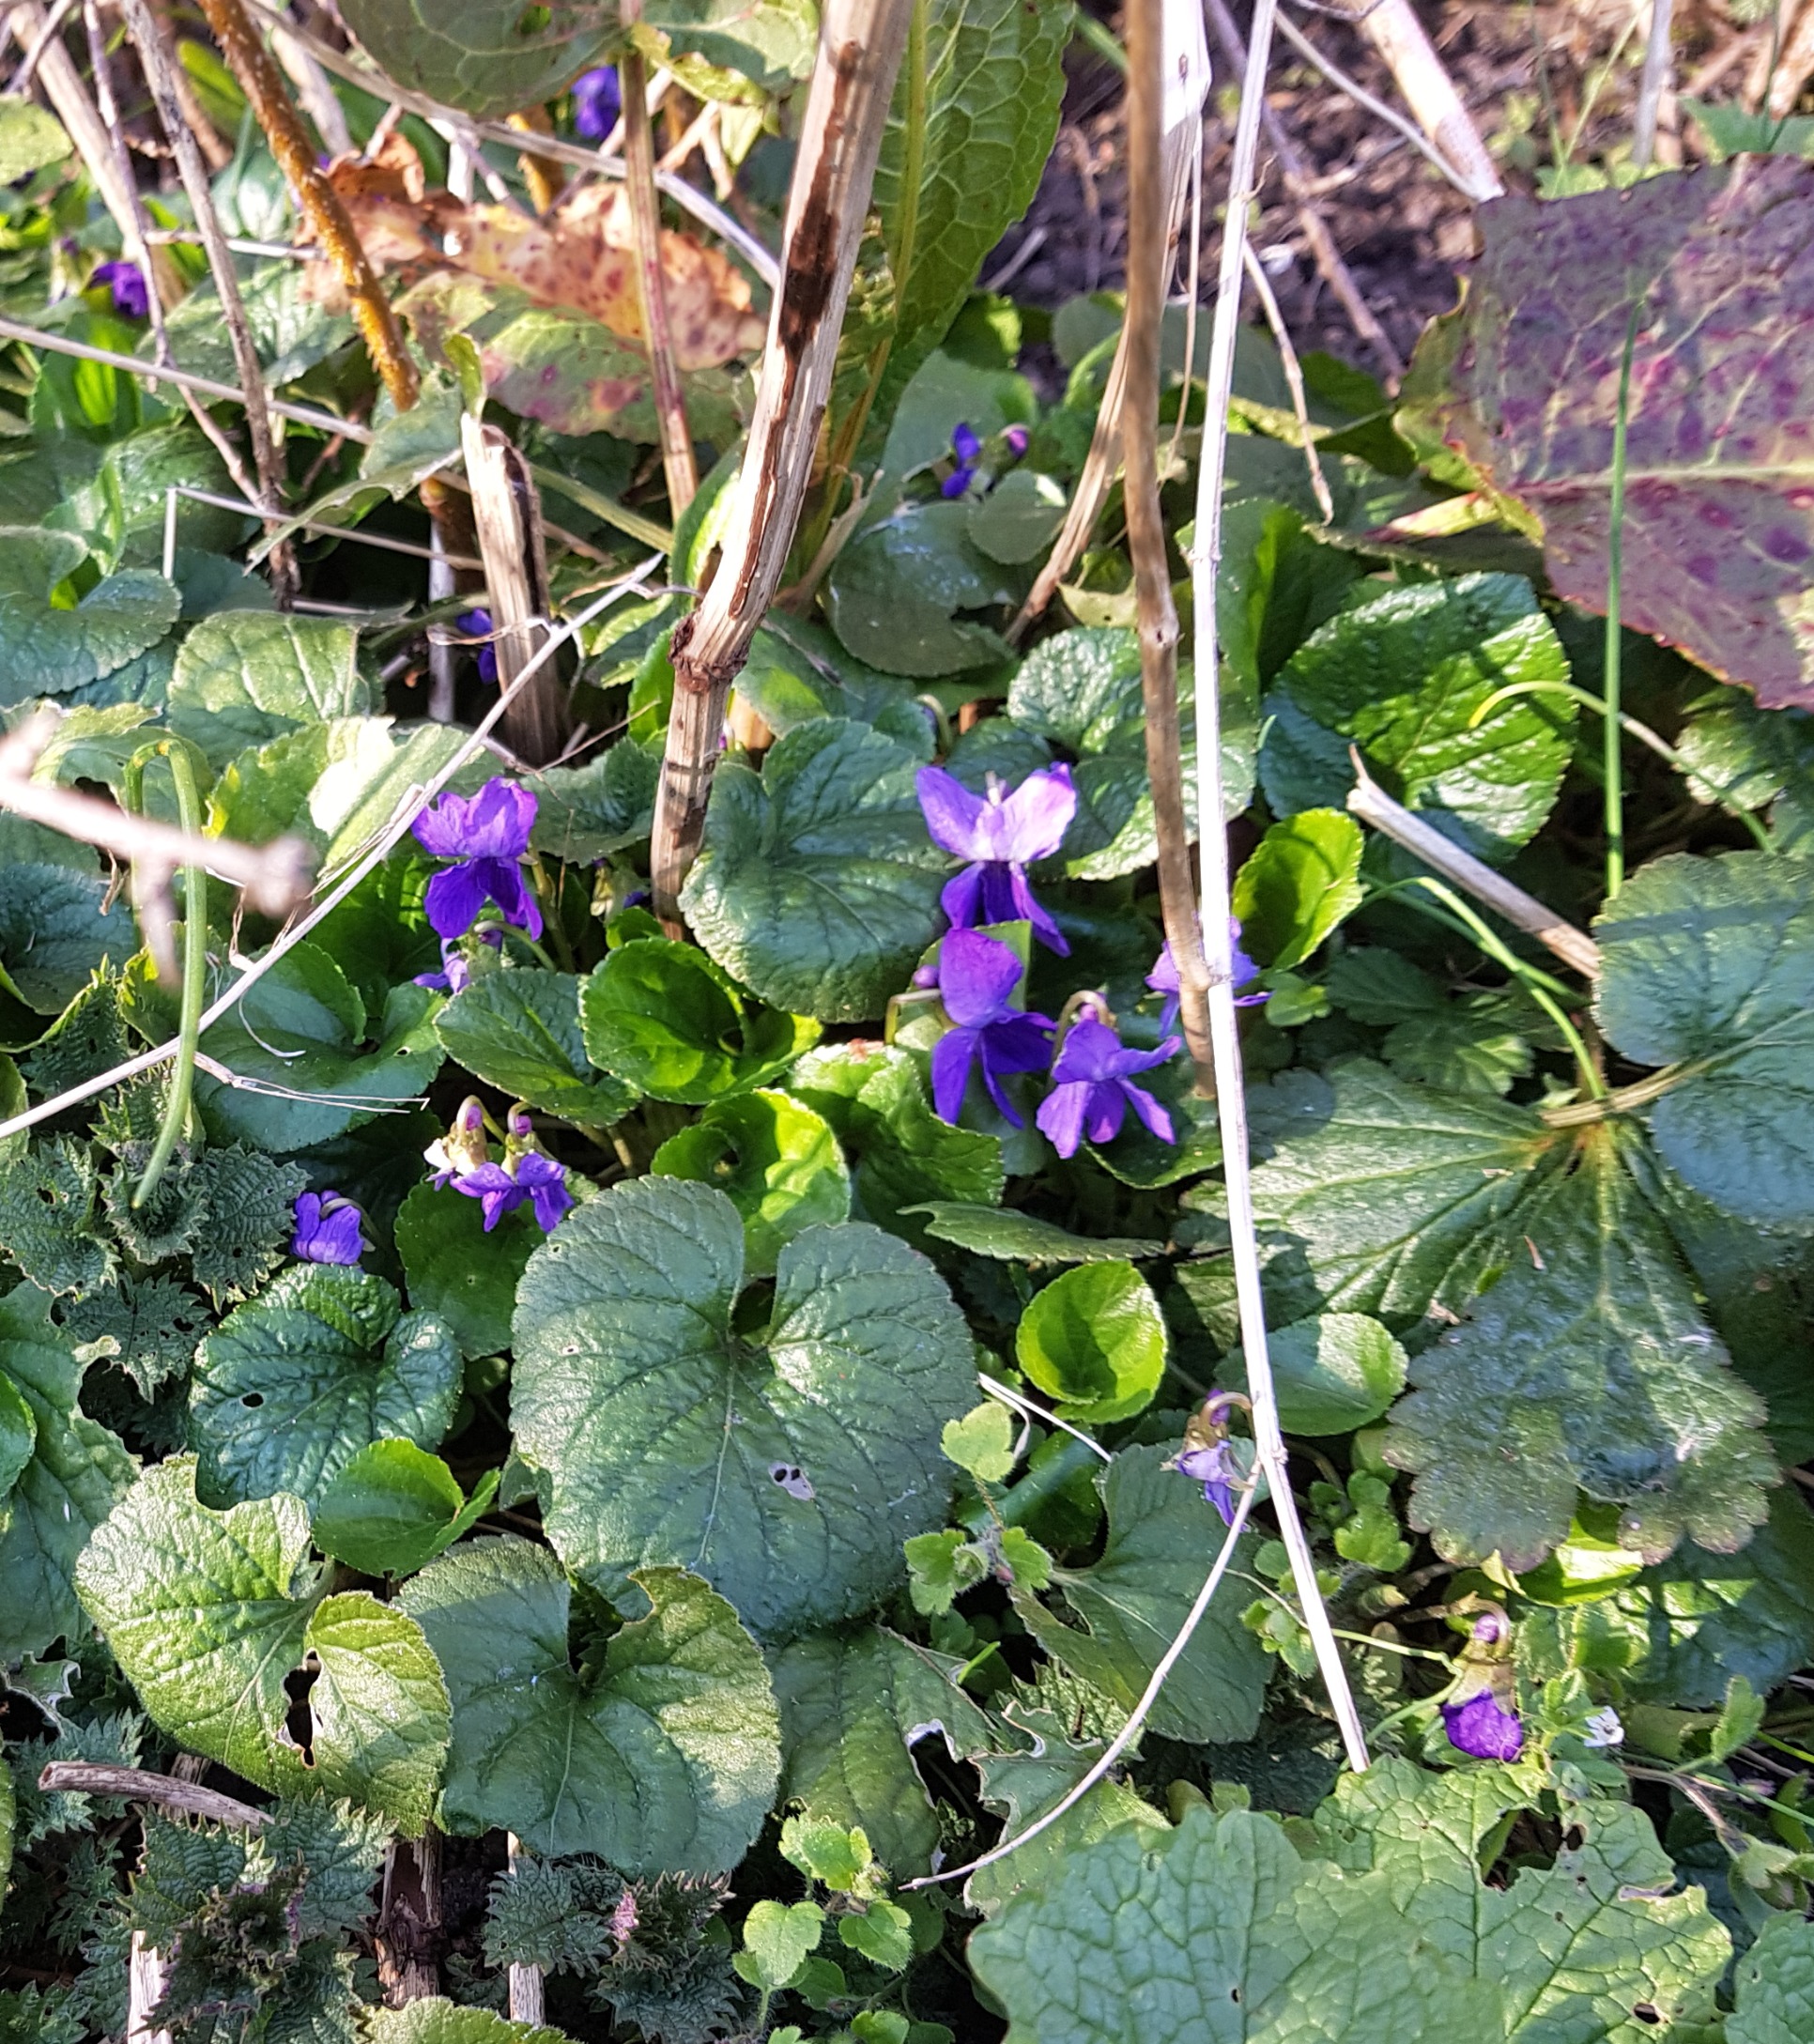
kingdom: Plantae
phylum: Tracheophyta
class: Magnoliopsida
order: Malpighiales
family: Violaceae
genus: Viola
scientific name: Viola odorata
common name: Marts-viol
